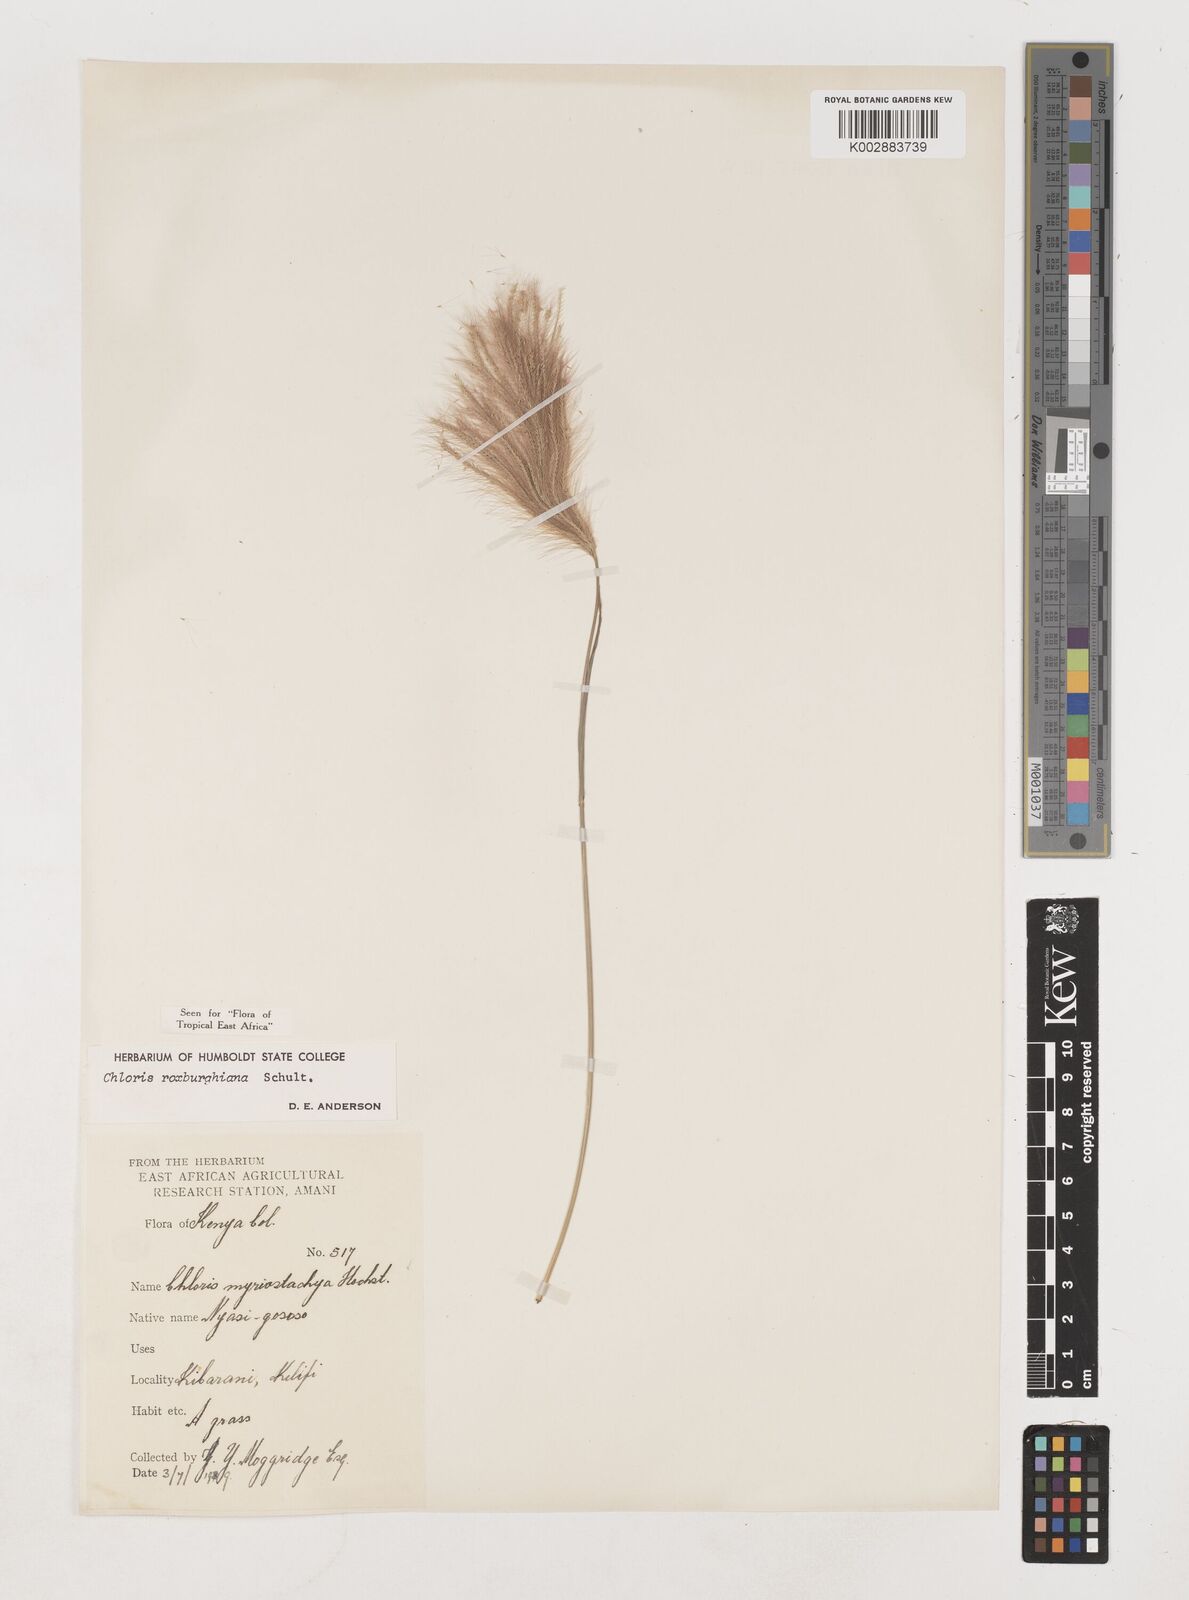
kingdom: Plantae
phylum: Tracheophyta
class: Liliopsida
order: Poales
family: Poaceae
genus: Tetrapogon
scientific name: Tetrapogon roxburghiana
